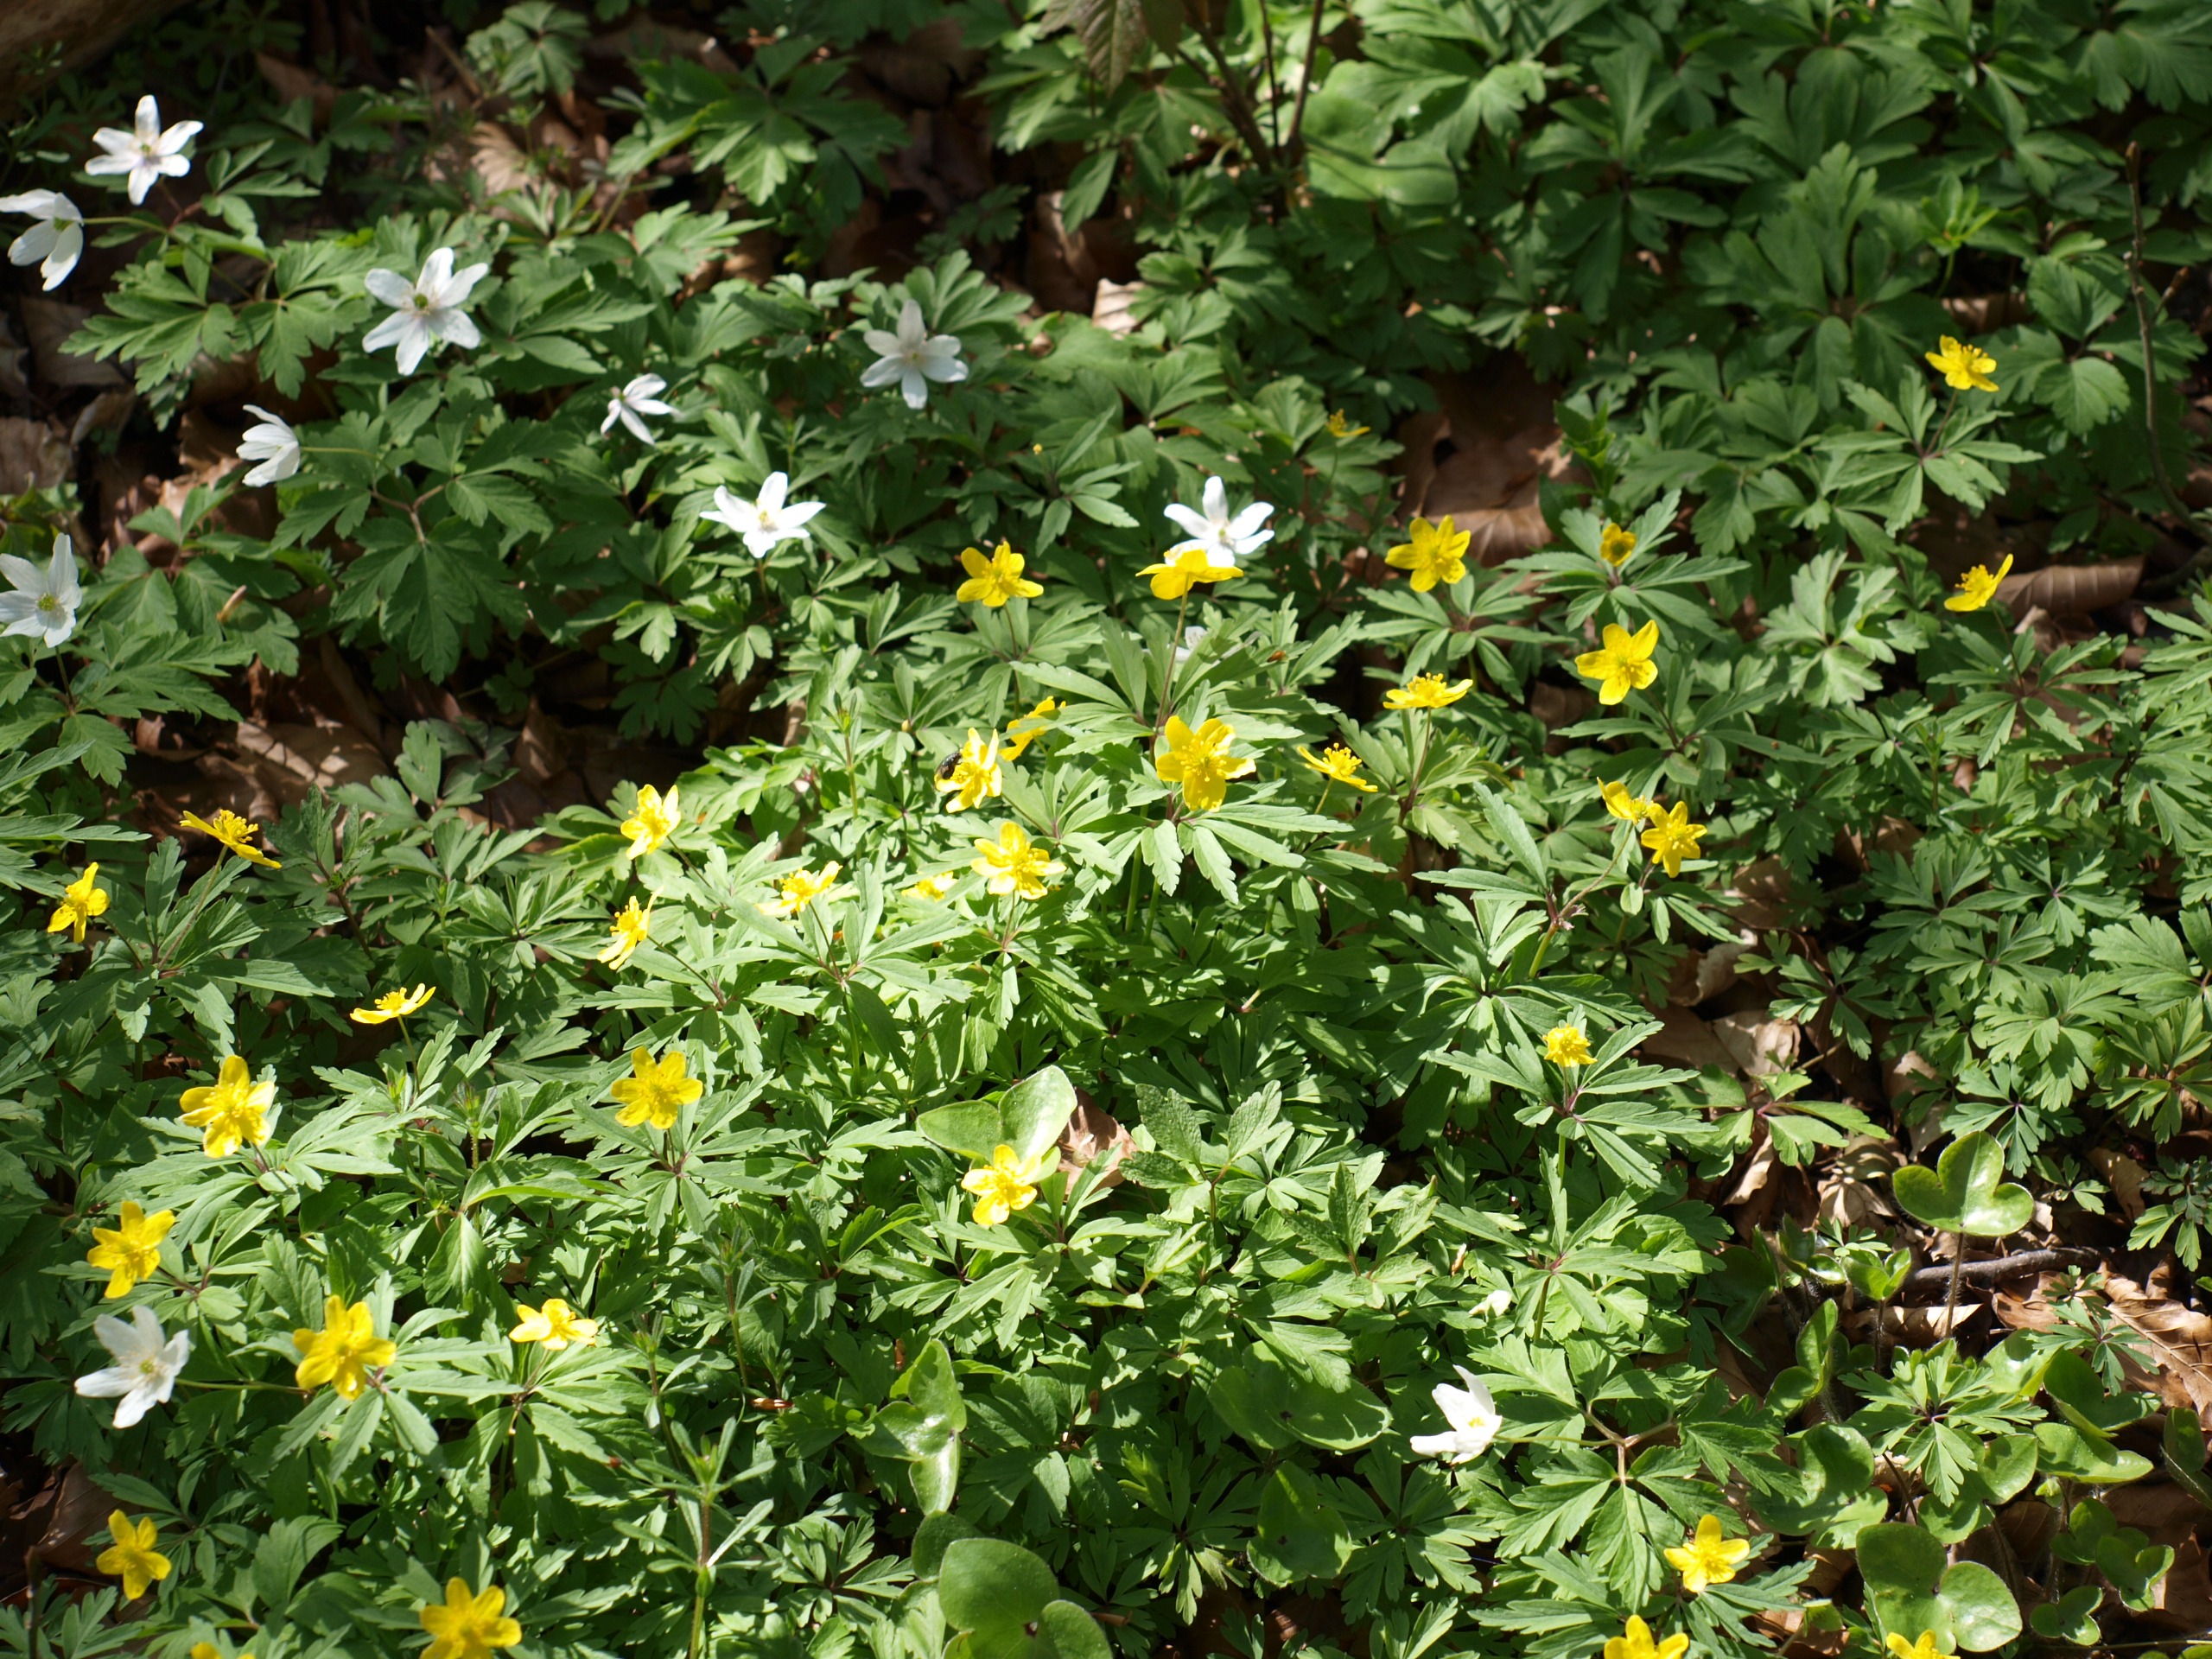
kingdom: Plantae
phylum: Tracheophyta
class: Magnoliopsida
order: Ranunculales
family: Ranunculaceae
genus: Anemone
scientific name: Anemone ranunculoides
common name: Gul anemone
